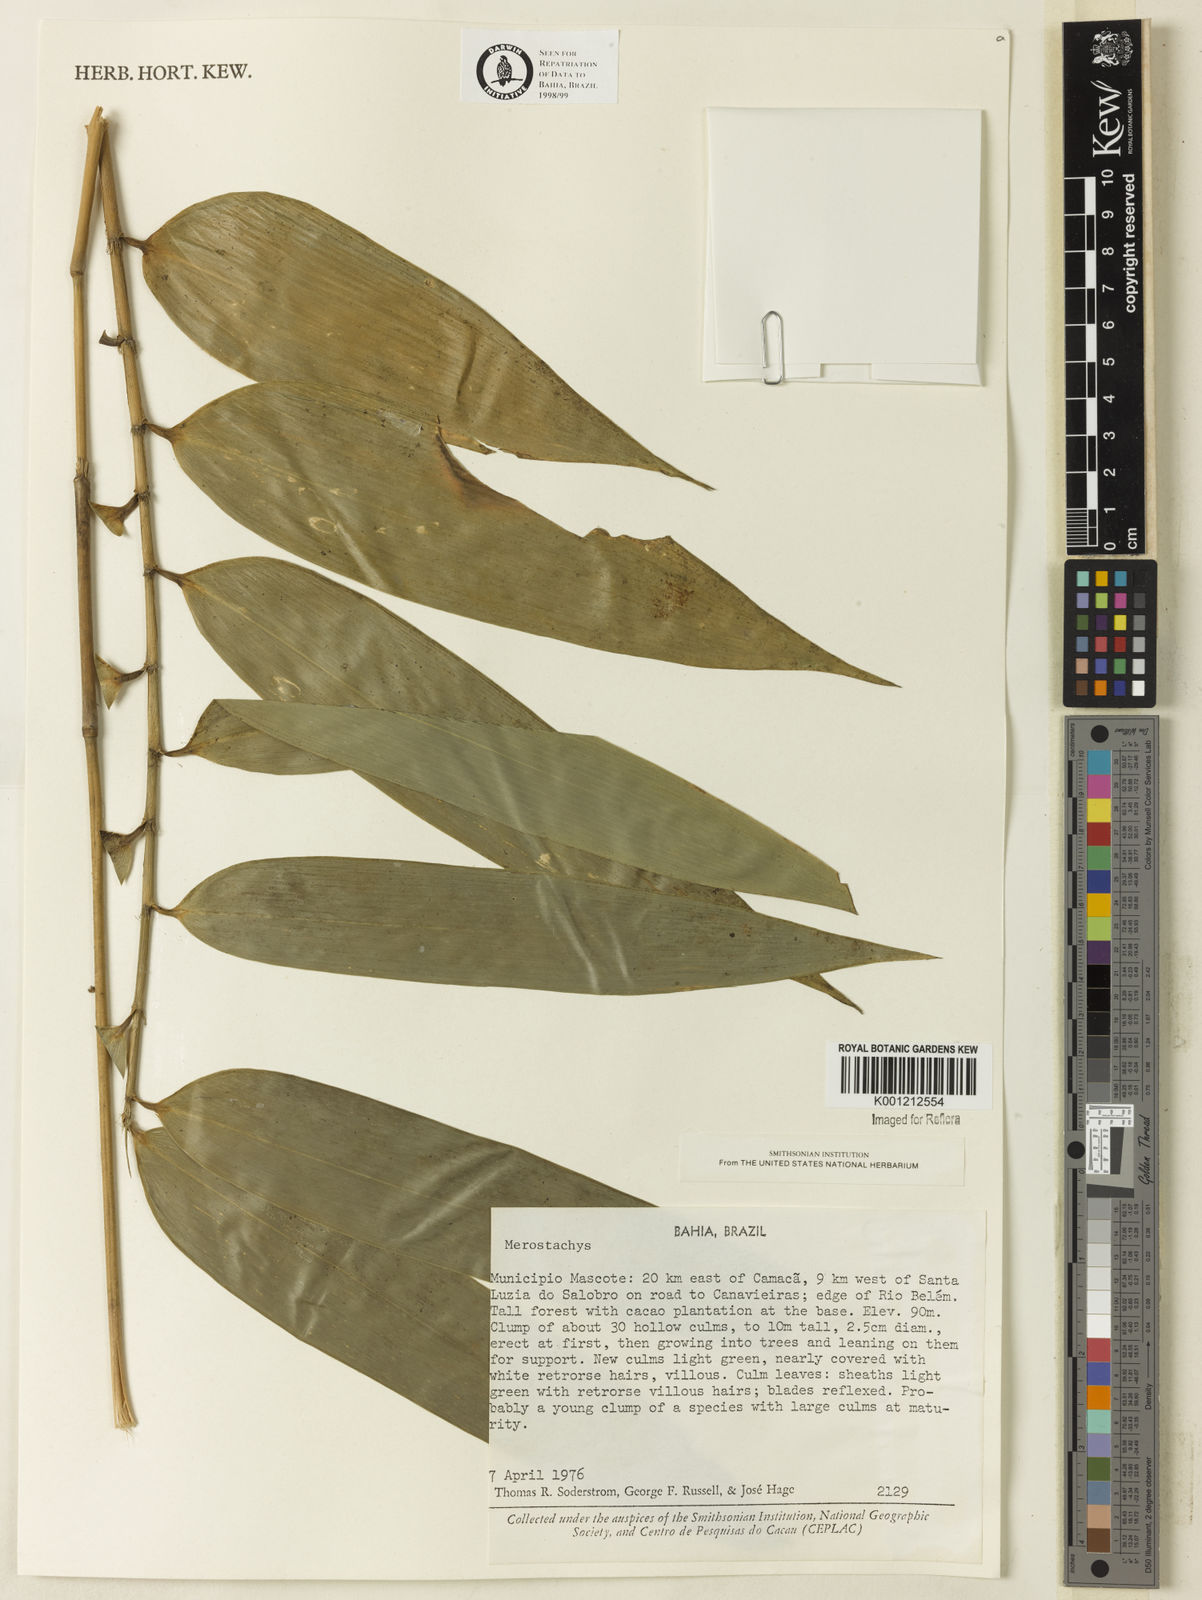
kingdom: Plantae
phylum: Tracheophyta
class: Liliopsida
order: Poales
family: Poaceae
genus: Merostachys
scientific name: Merostachys
